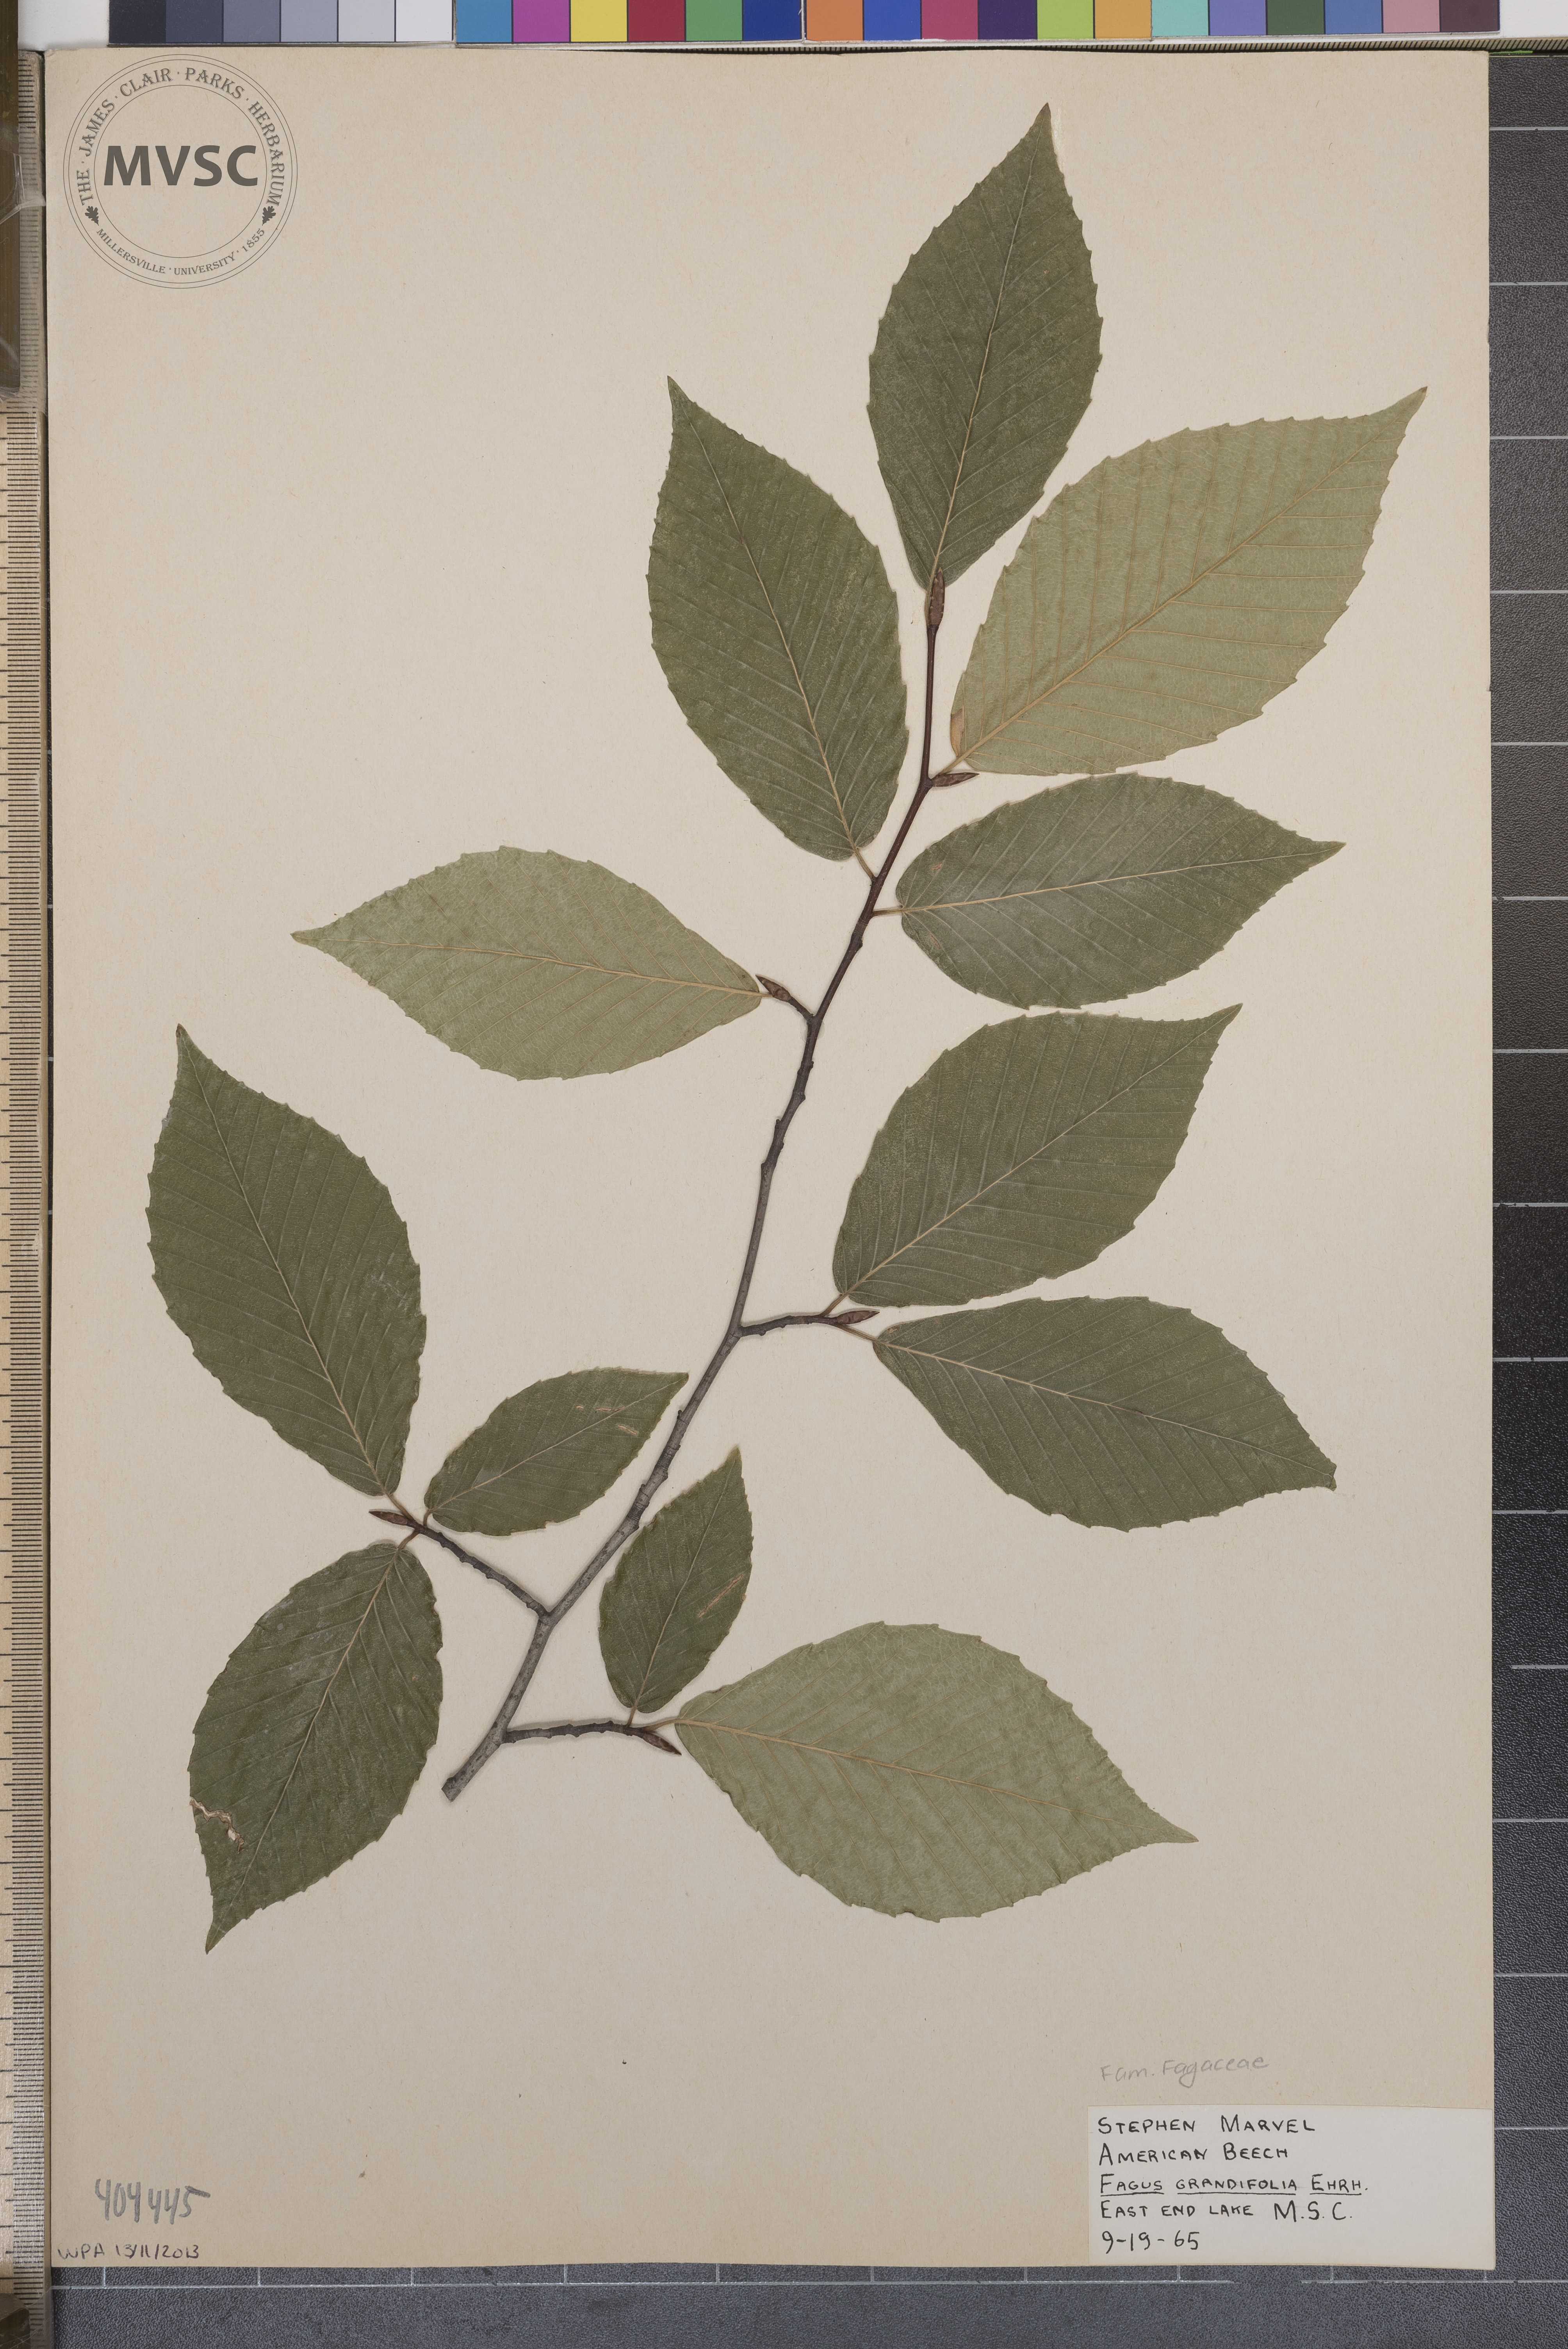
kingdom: Plantae
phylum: Tracheophyta
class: Magnoliopsida
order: Fagales
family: Fagaceae
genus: Fagus
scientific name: Fagus grandifolia
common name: American Beech
